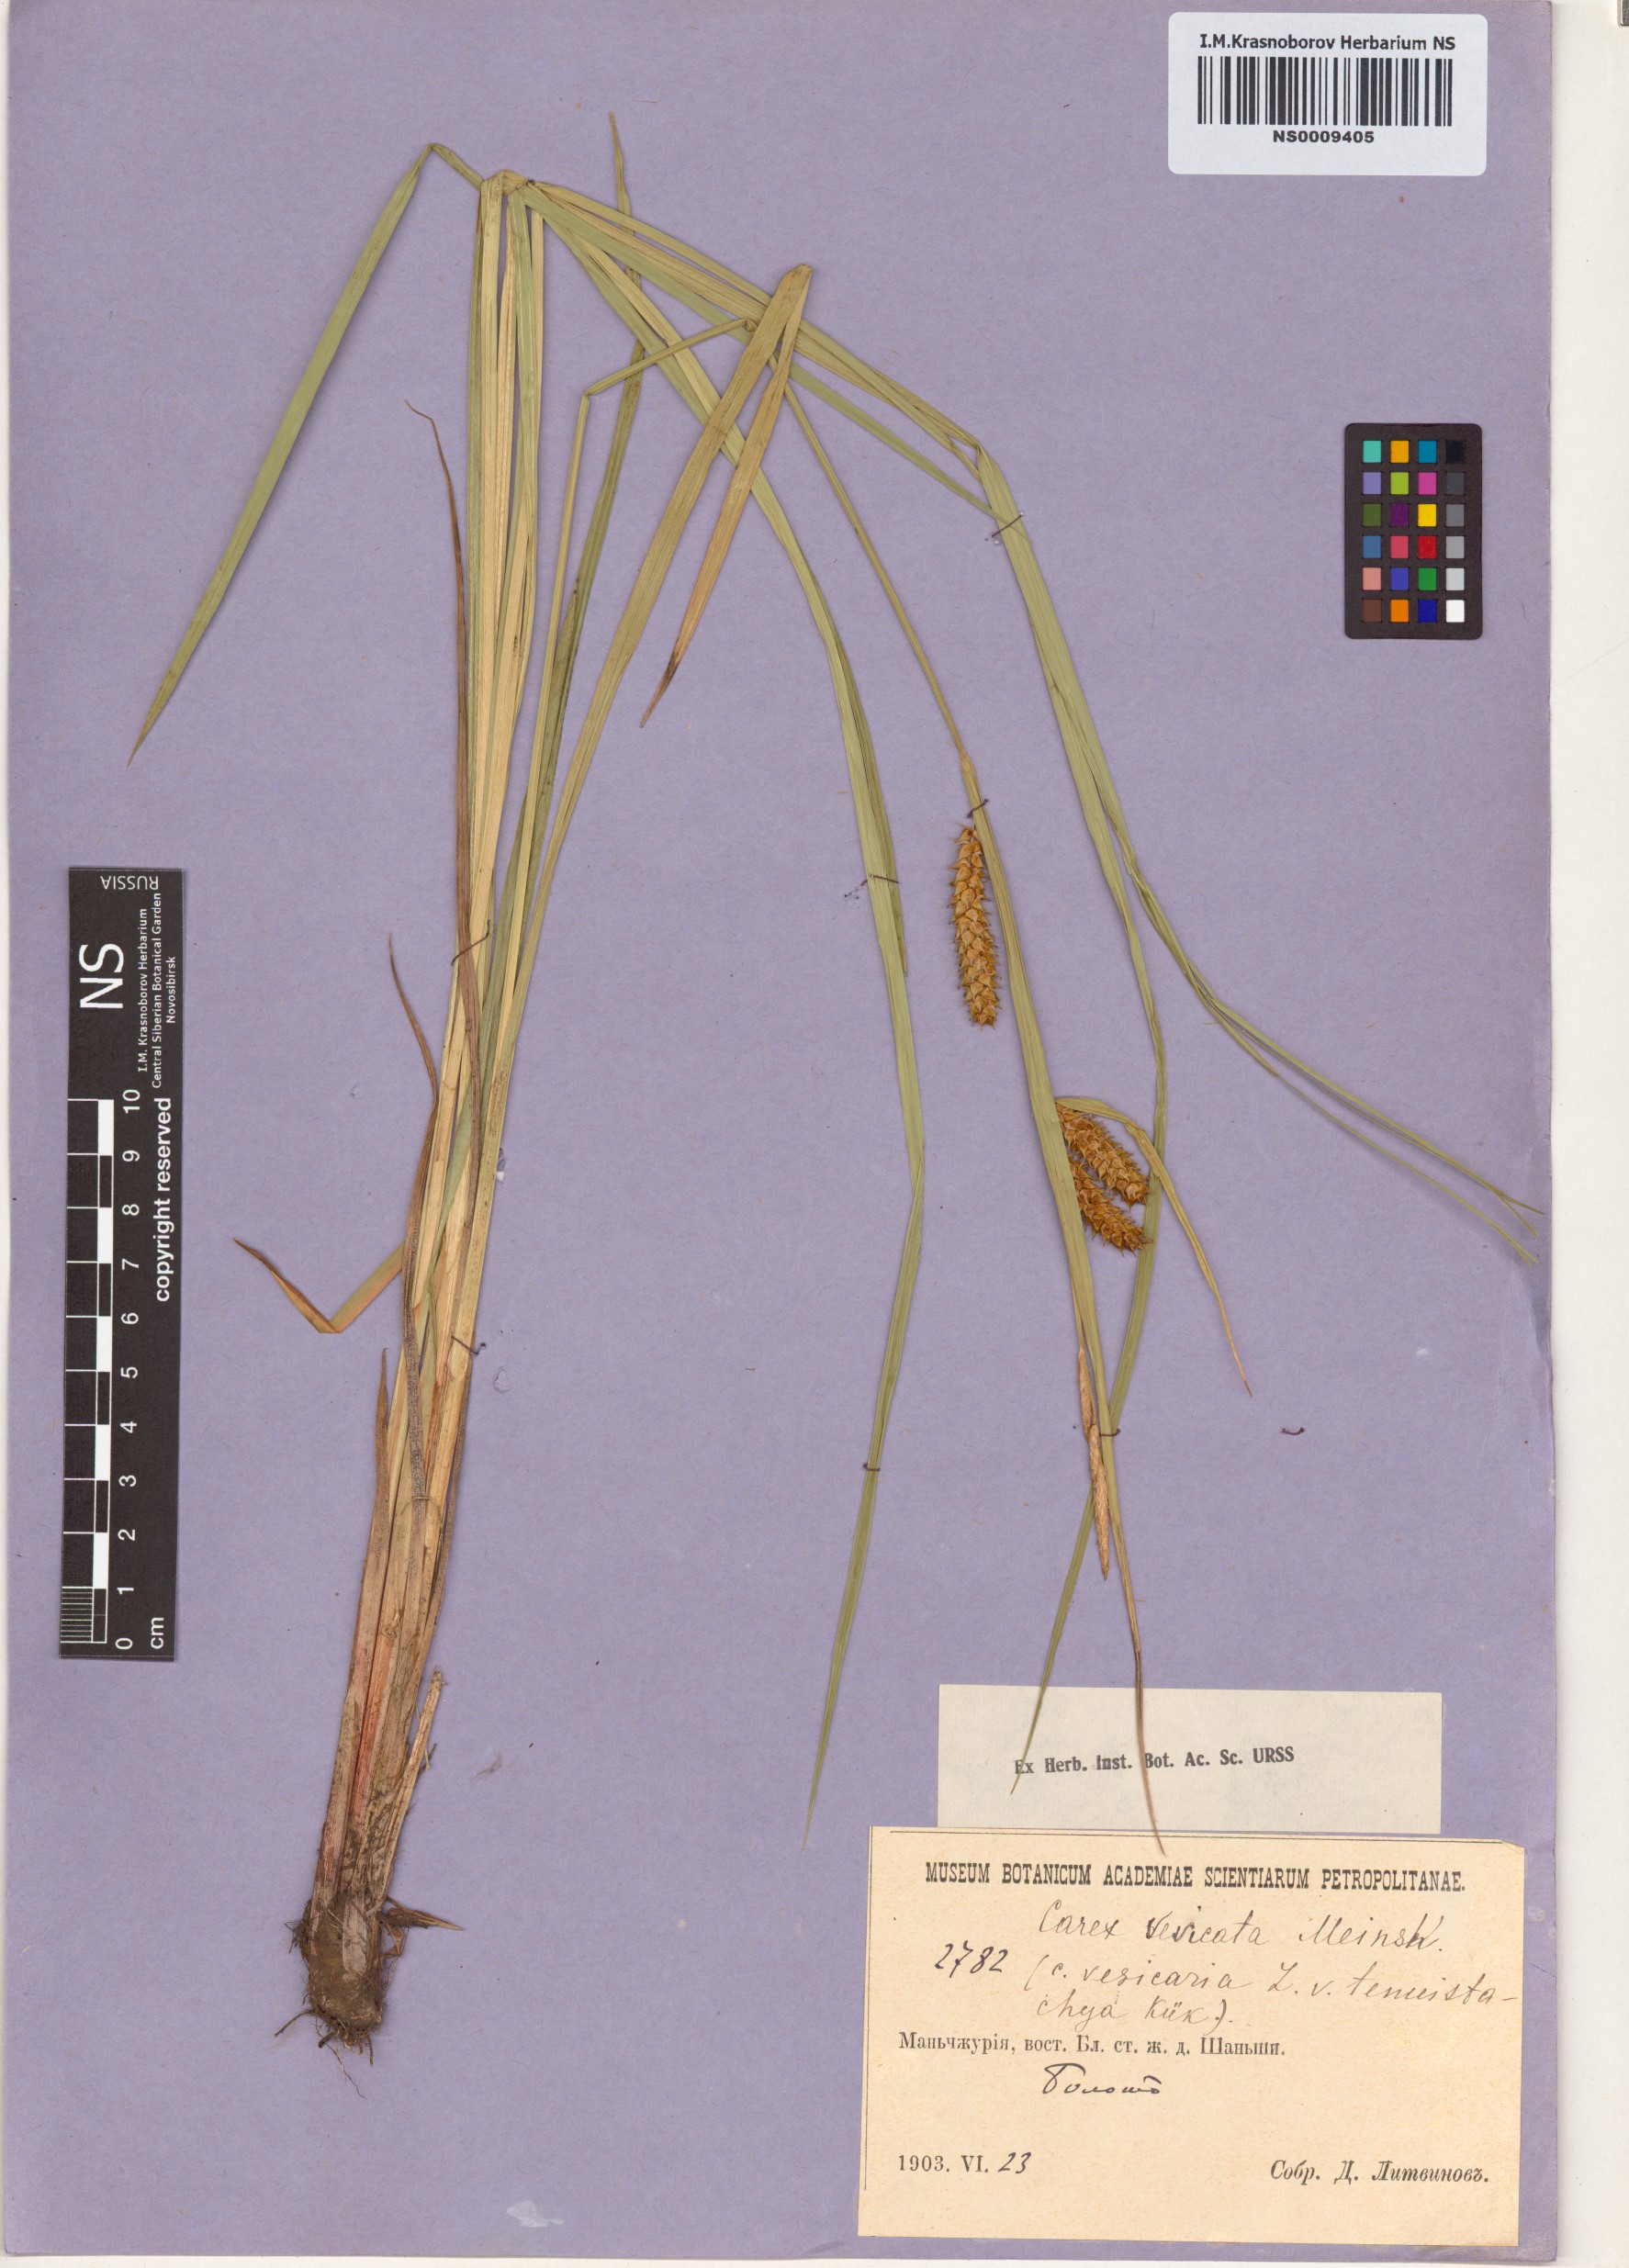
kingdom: Plantae
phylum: Tracheophyta
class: Liliopsida
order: Poales
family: Cyperaceae
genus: Carex
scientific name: Carex vesicata
